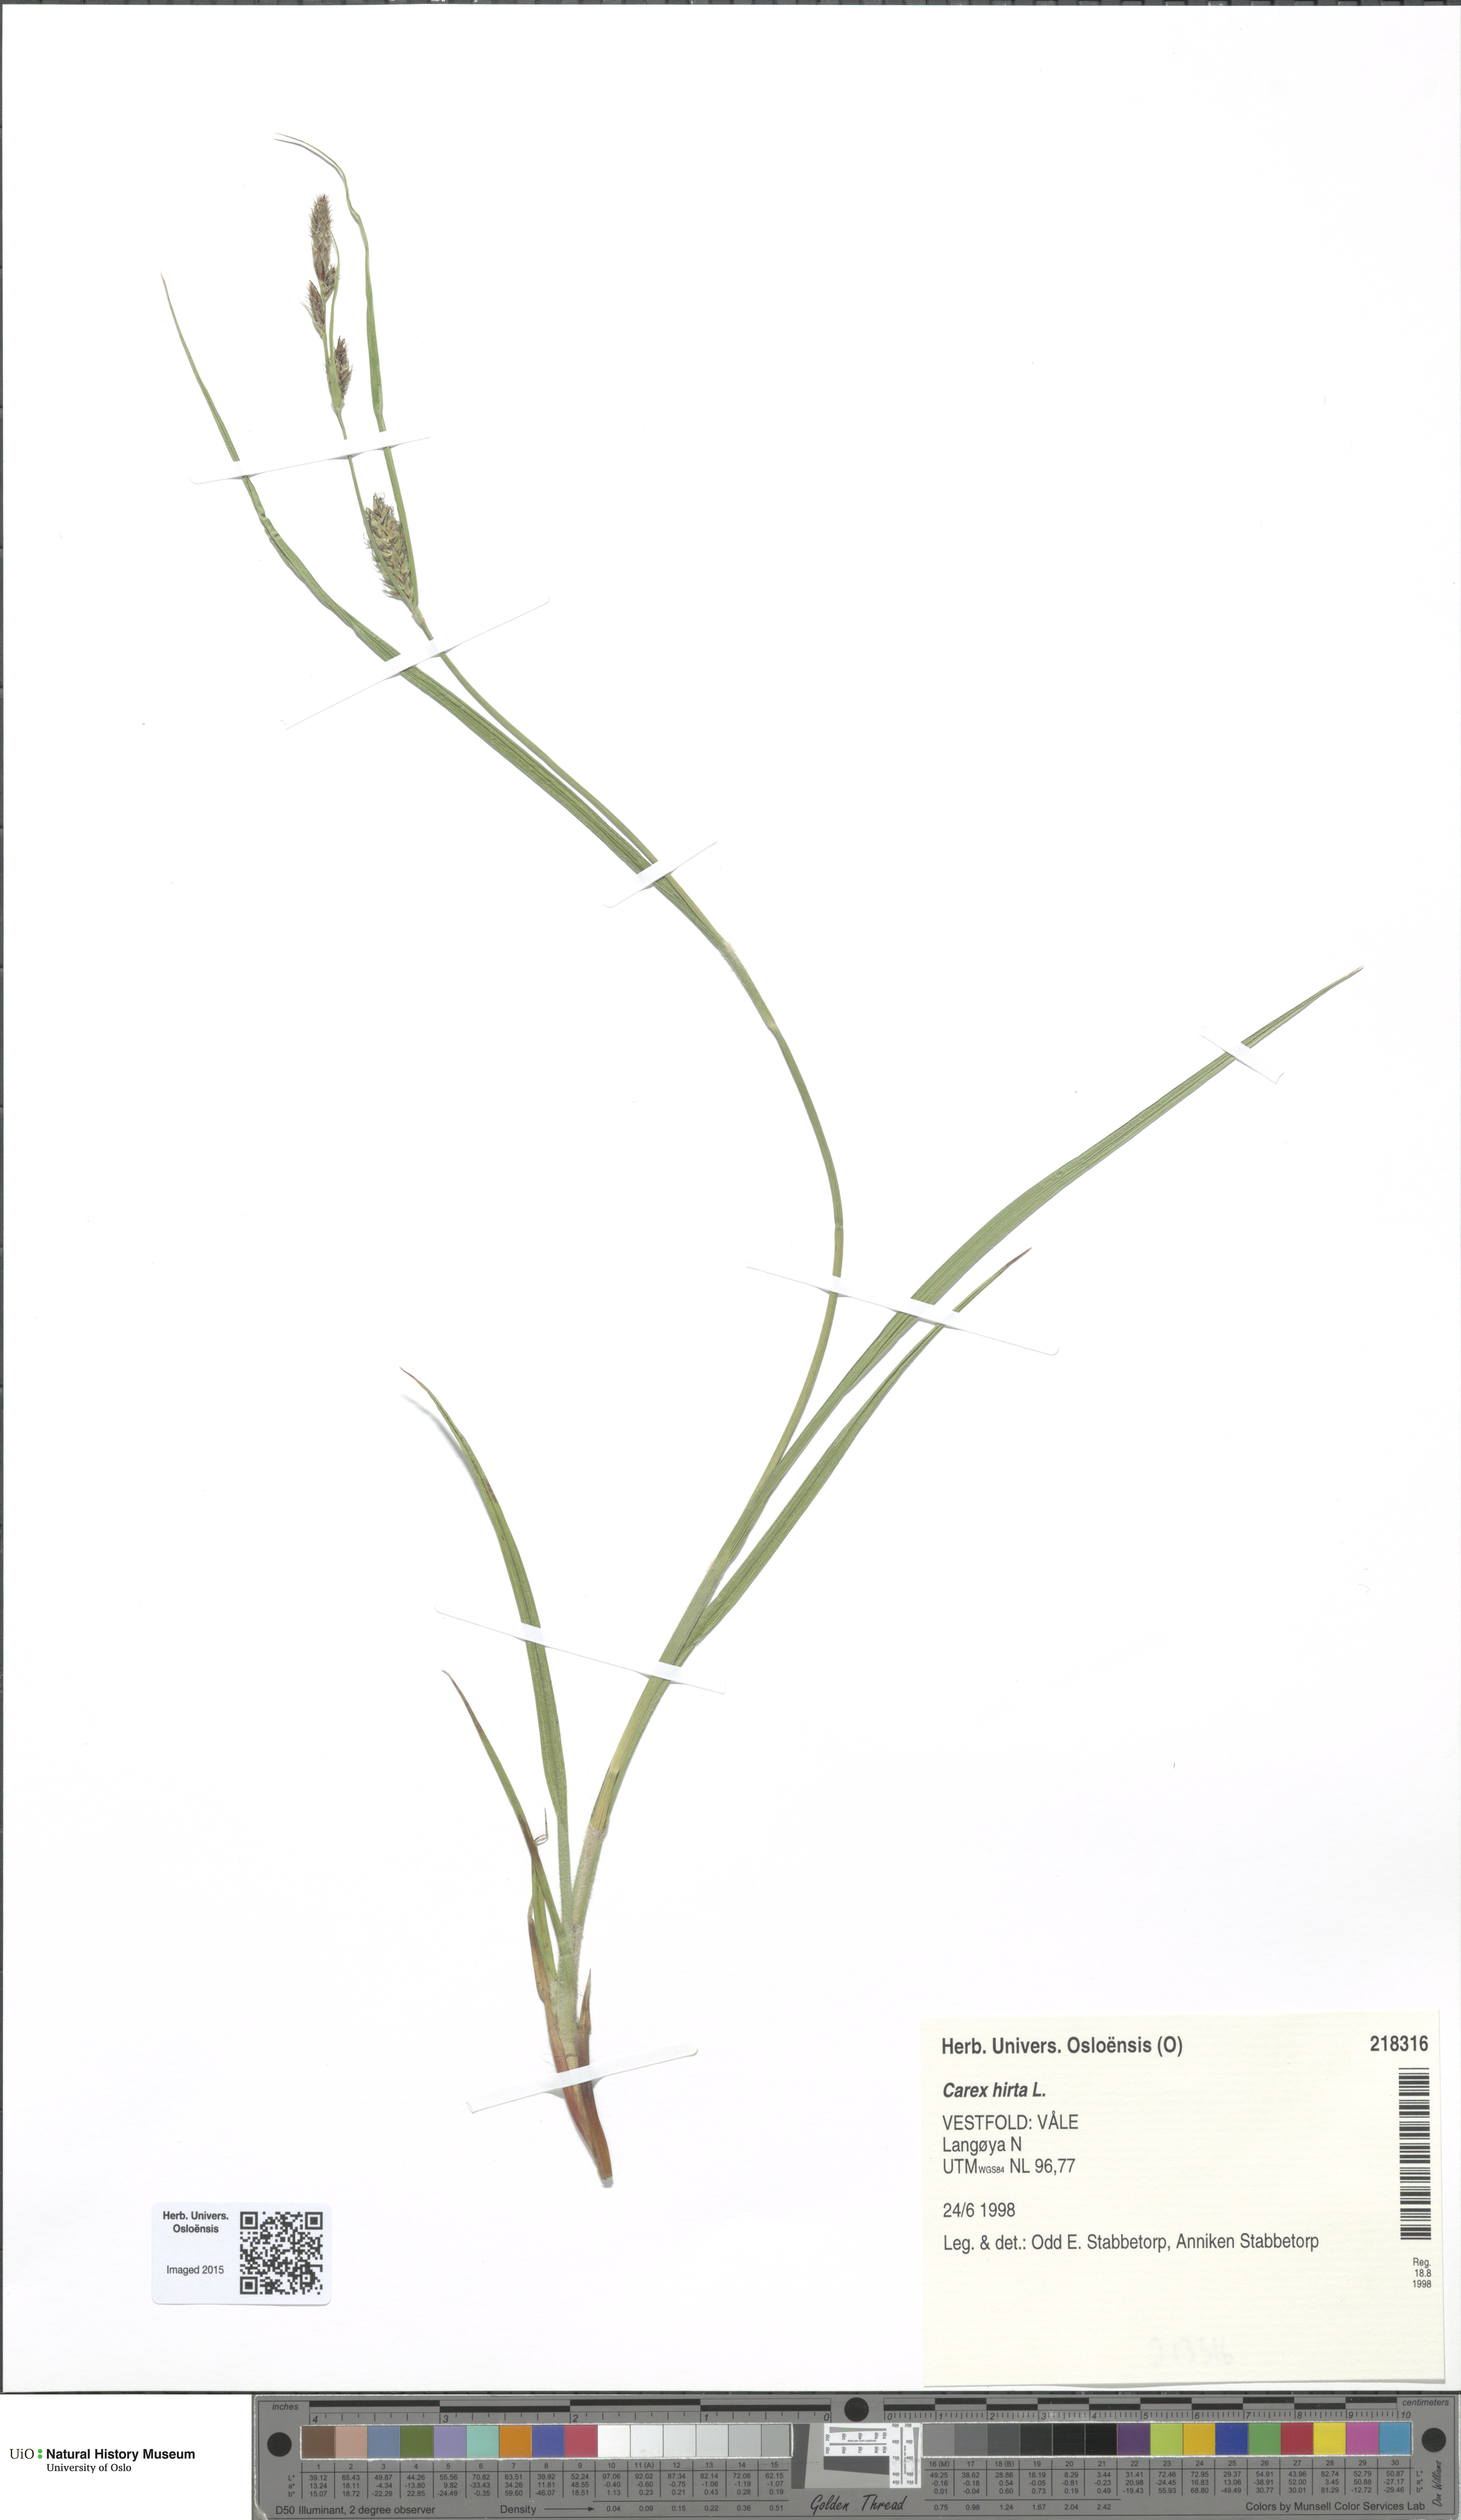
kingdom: Plantae
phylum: Tracheophyta
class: Liliopsida
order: Poales
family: Cyperaceae
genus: Carex
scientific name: Carex hirta
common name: Hairy sedge
